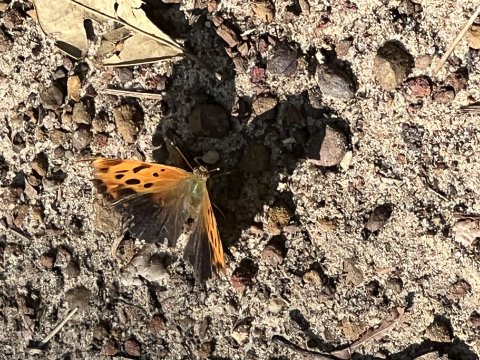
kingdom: Animalia
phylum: Arthropoda
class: Insecta
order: Lepidoptera
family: Nymphalidae
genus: Polygonia
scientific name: Polygonia interrogationis
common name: Question Mark
